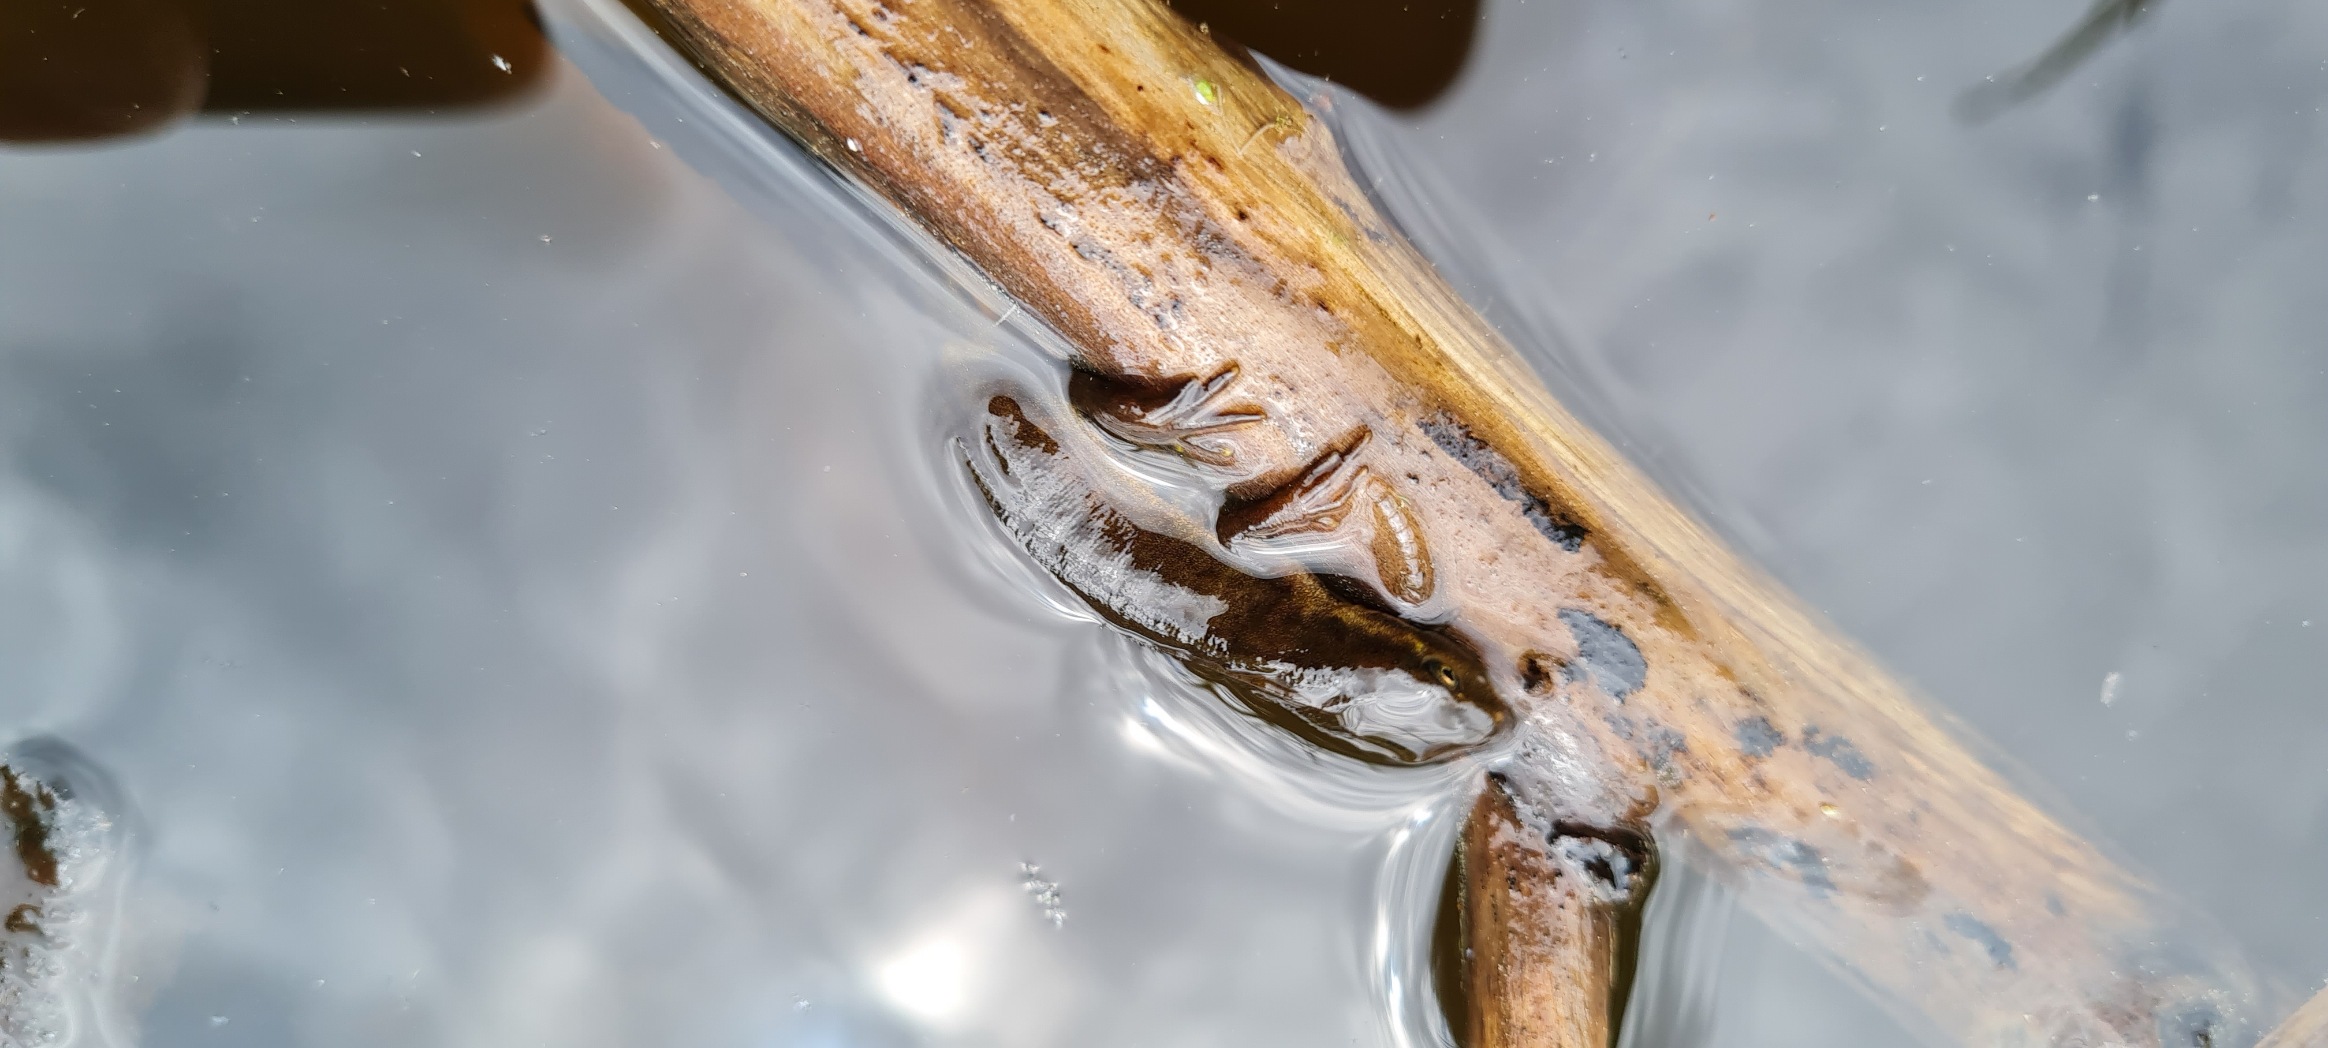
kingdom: Animalia
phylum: Chordata
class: Amphibia
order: Caudata
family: Salamandridae
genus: Lissotriton
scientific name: Lissotriton vulgaris
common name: Lille vandsalamander
